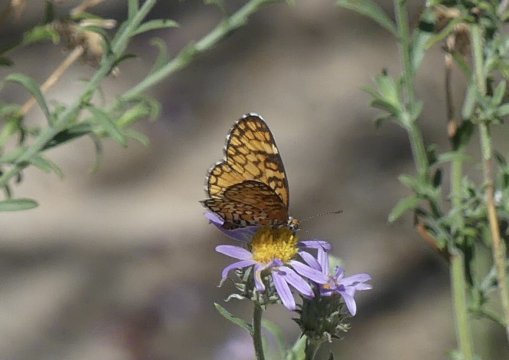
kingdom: Animalia
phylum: Arthropoda
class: Insecta
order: Lepidoptera
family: Nymphalidae
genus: Dymasia
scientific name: Dymasia dymas
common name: Tiny Checkerspot
